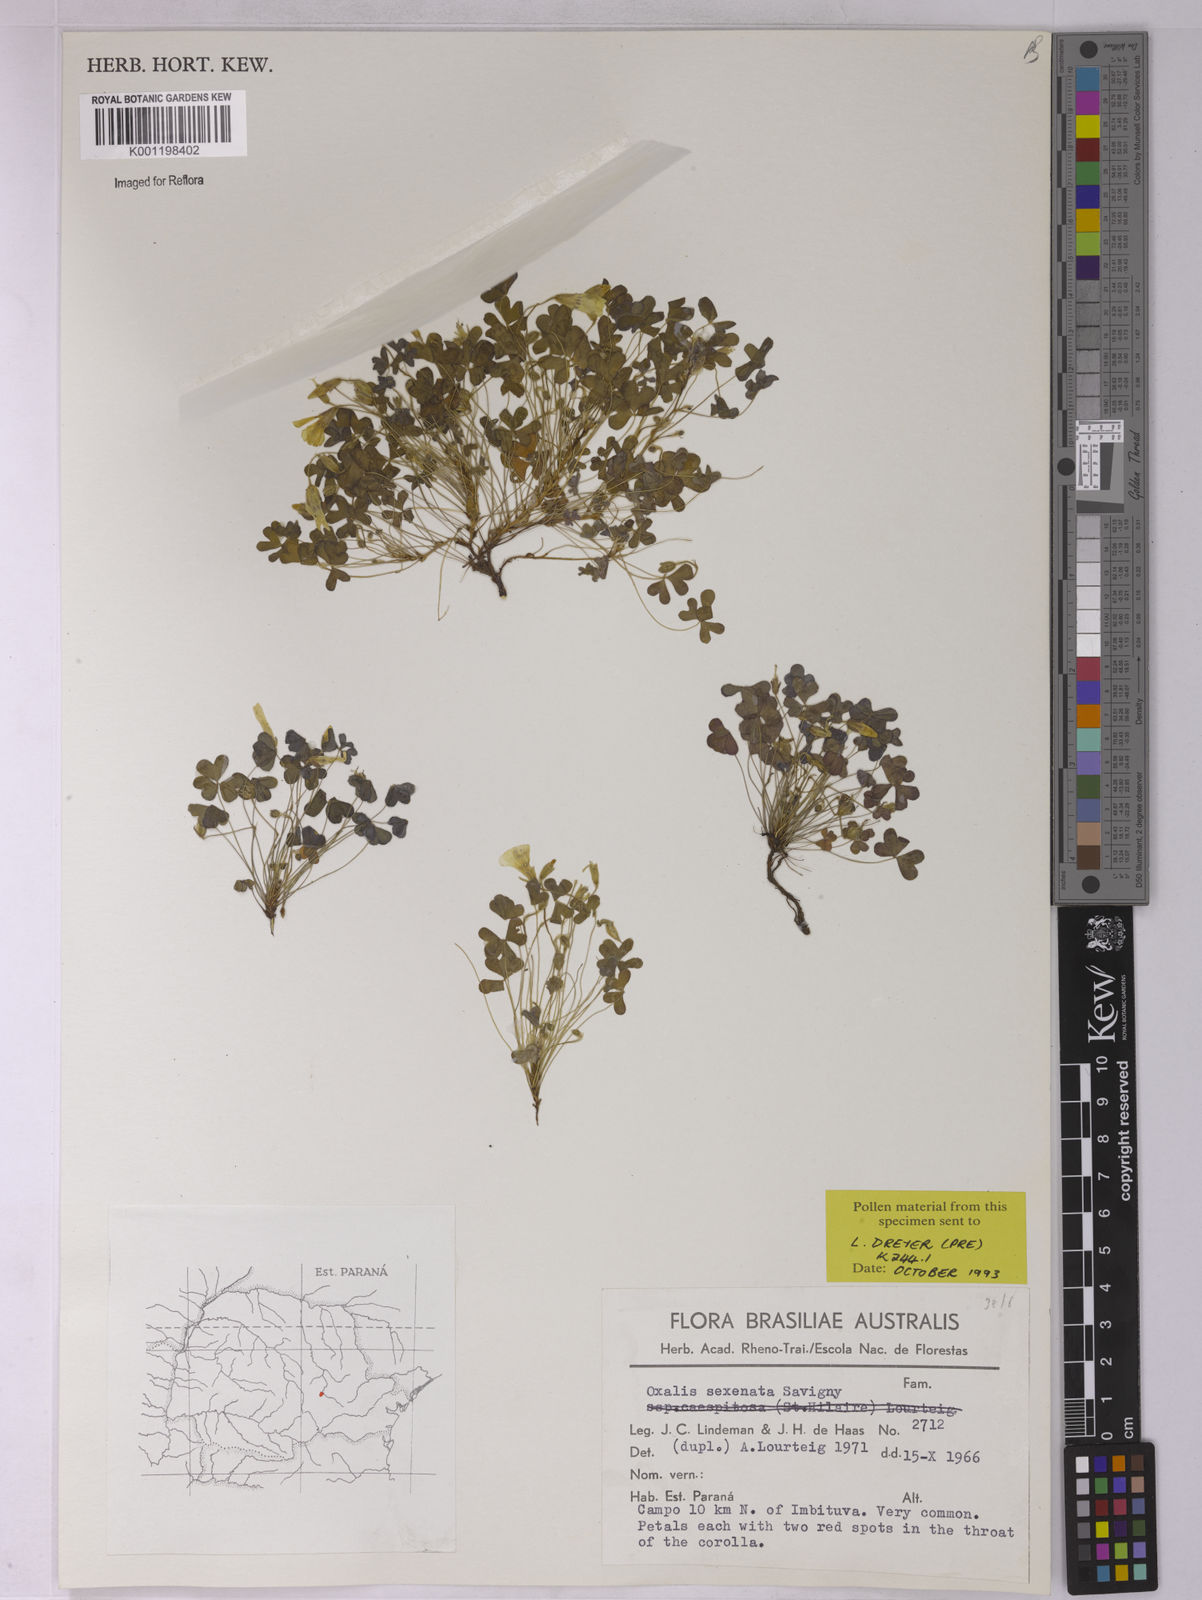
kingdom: Plantae
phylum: Tracheophyta
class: Magnoliopsida
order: Oxalidales
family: Oxalidaceae
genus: Oxalis
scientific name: Oxalis conorrhiza
